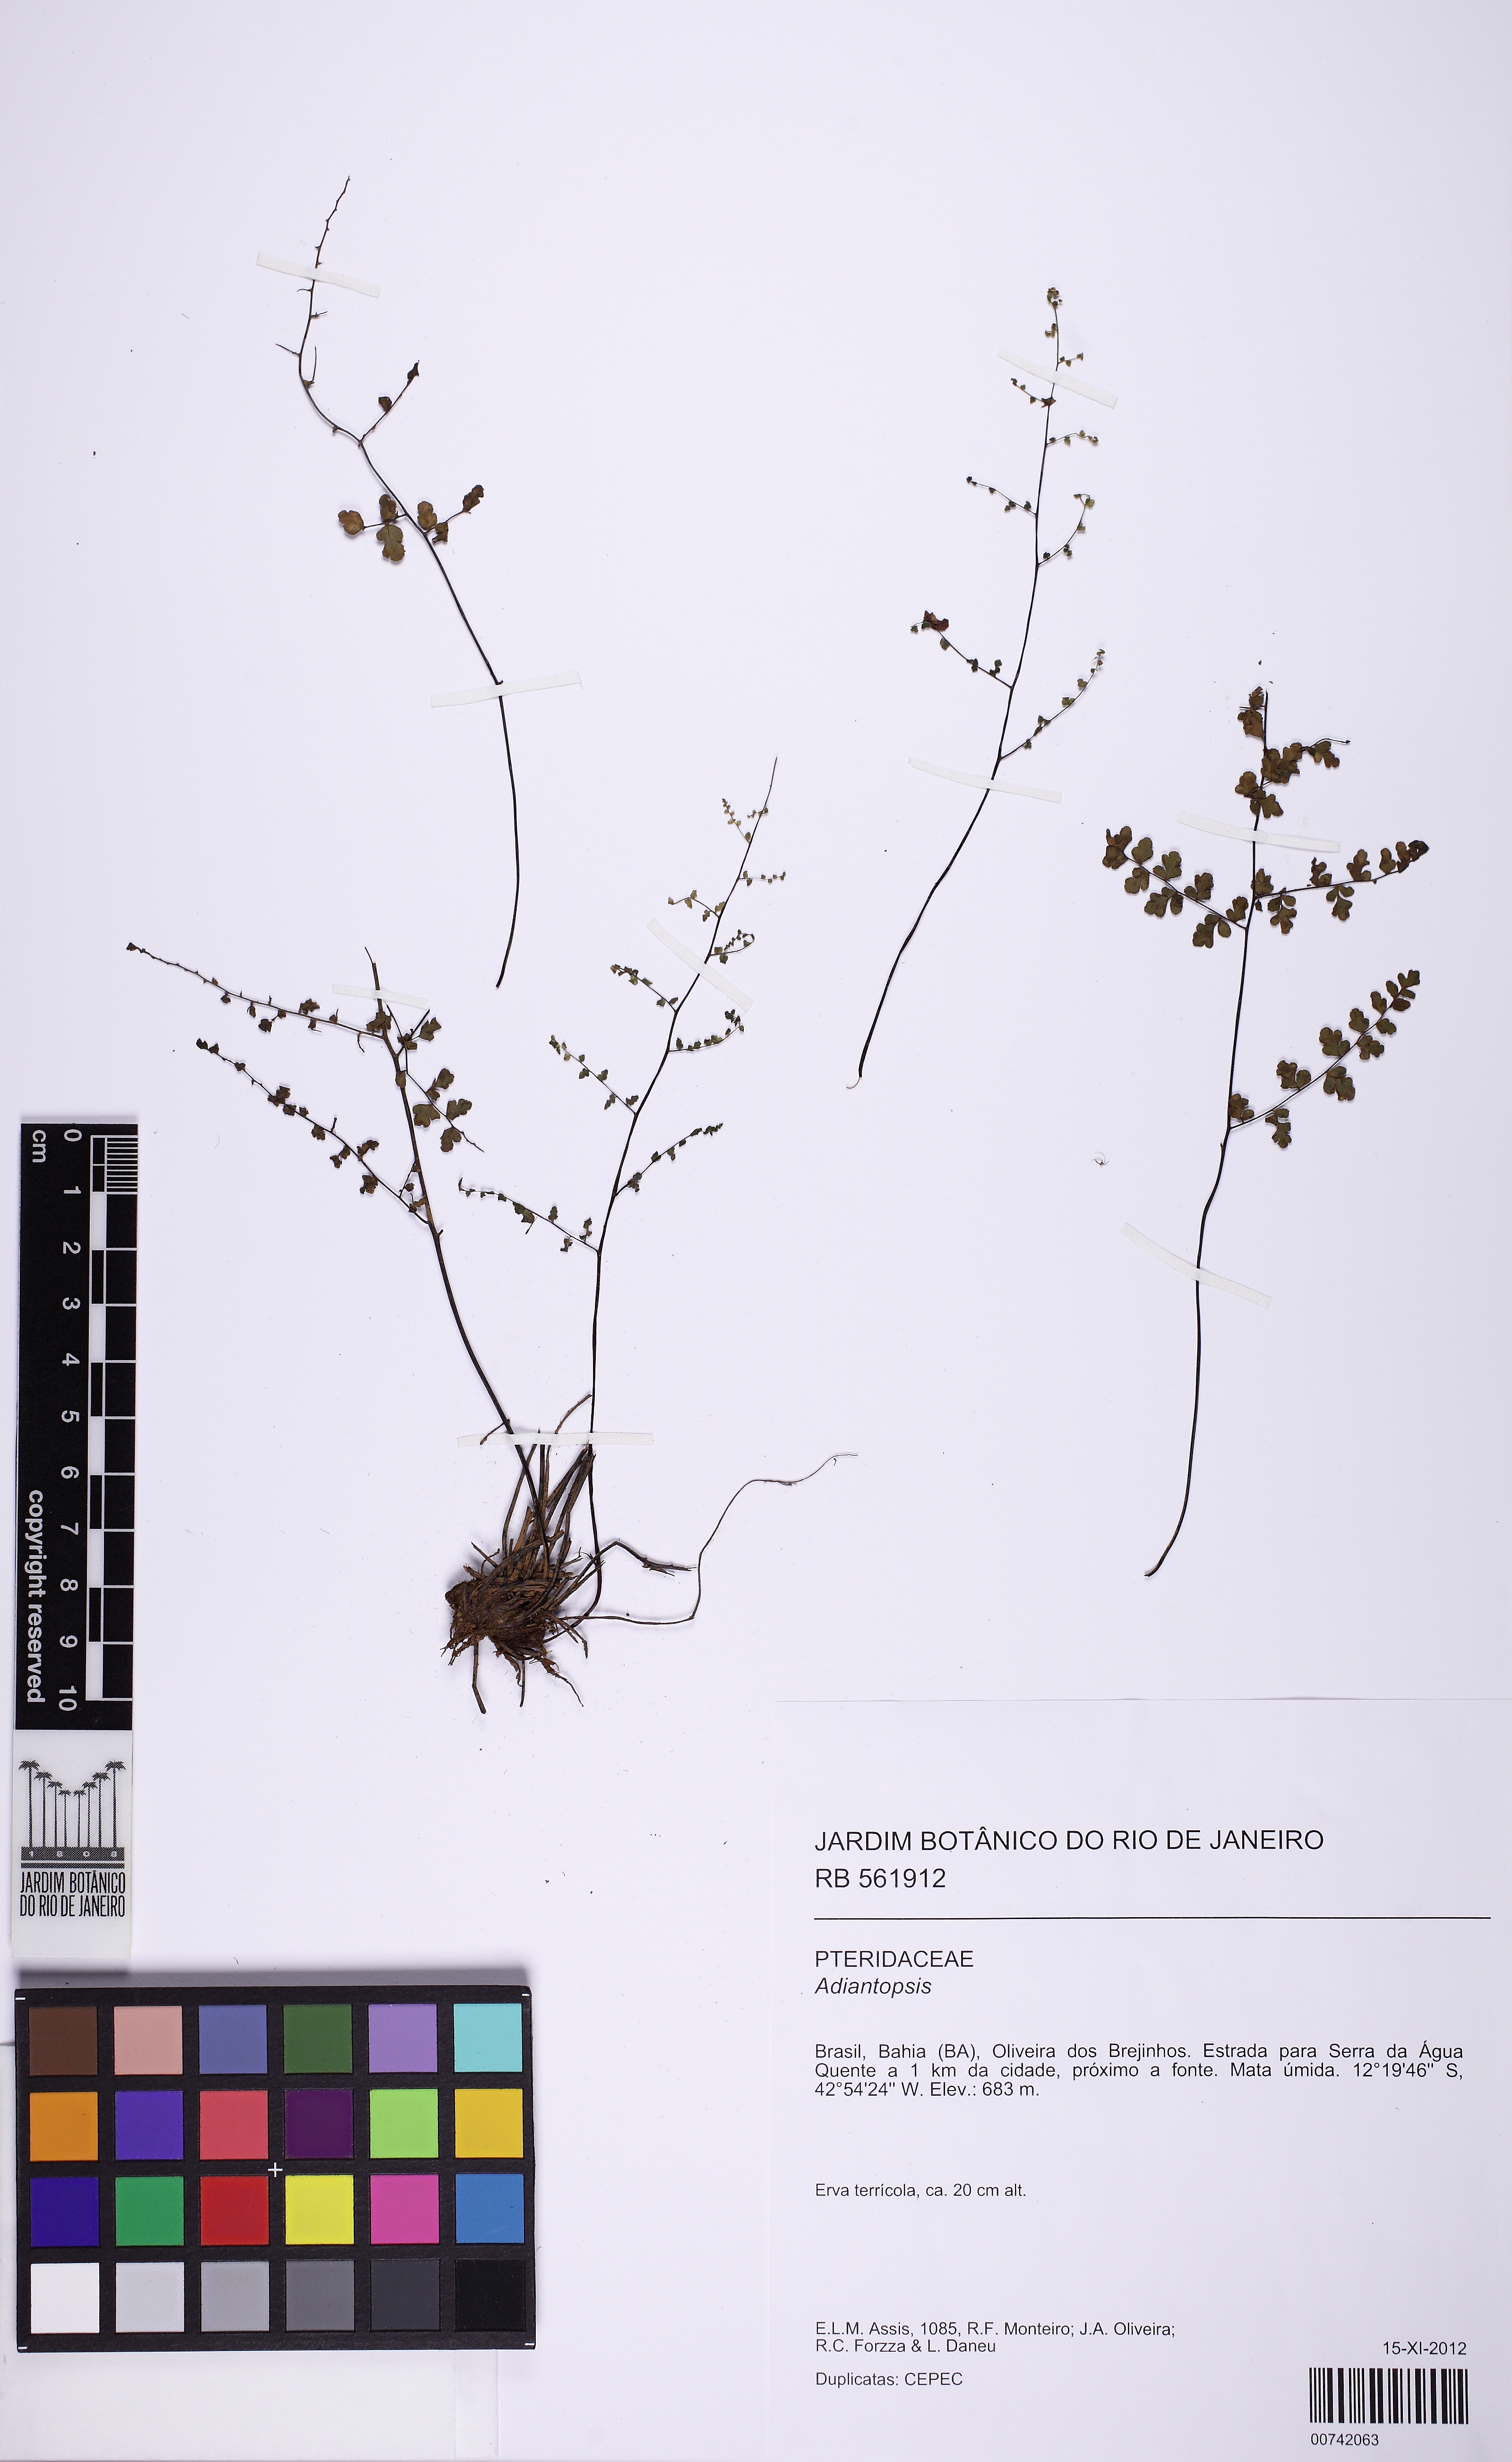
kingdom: Plantae
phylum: Tracheophyta
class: Polypodiopsida
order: Polypodiales
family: Pteridaceae
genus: Adiantopsis
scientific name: Adiantopsis chlorophylla
